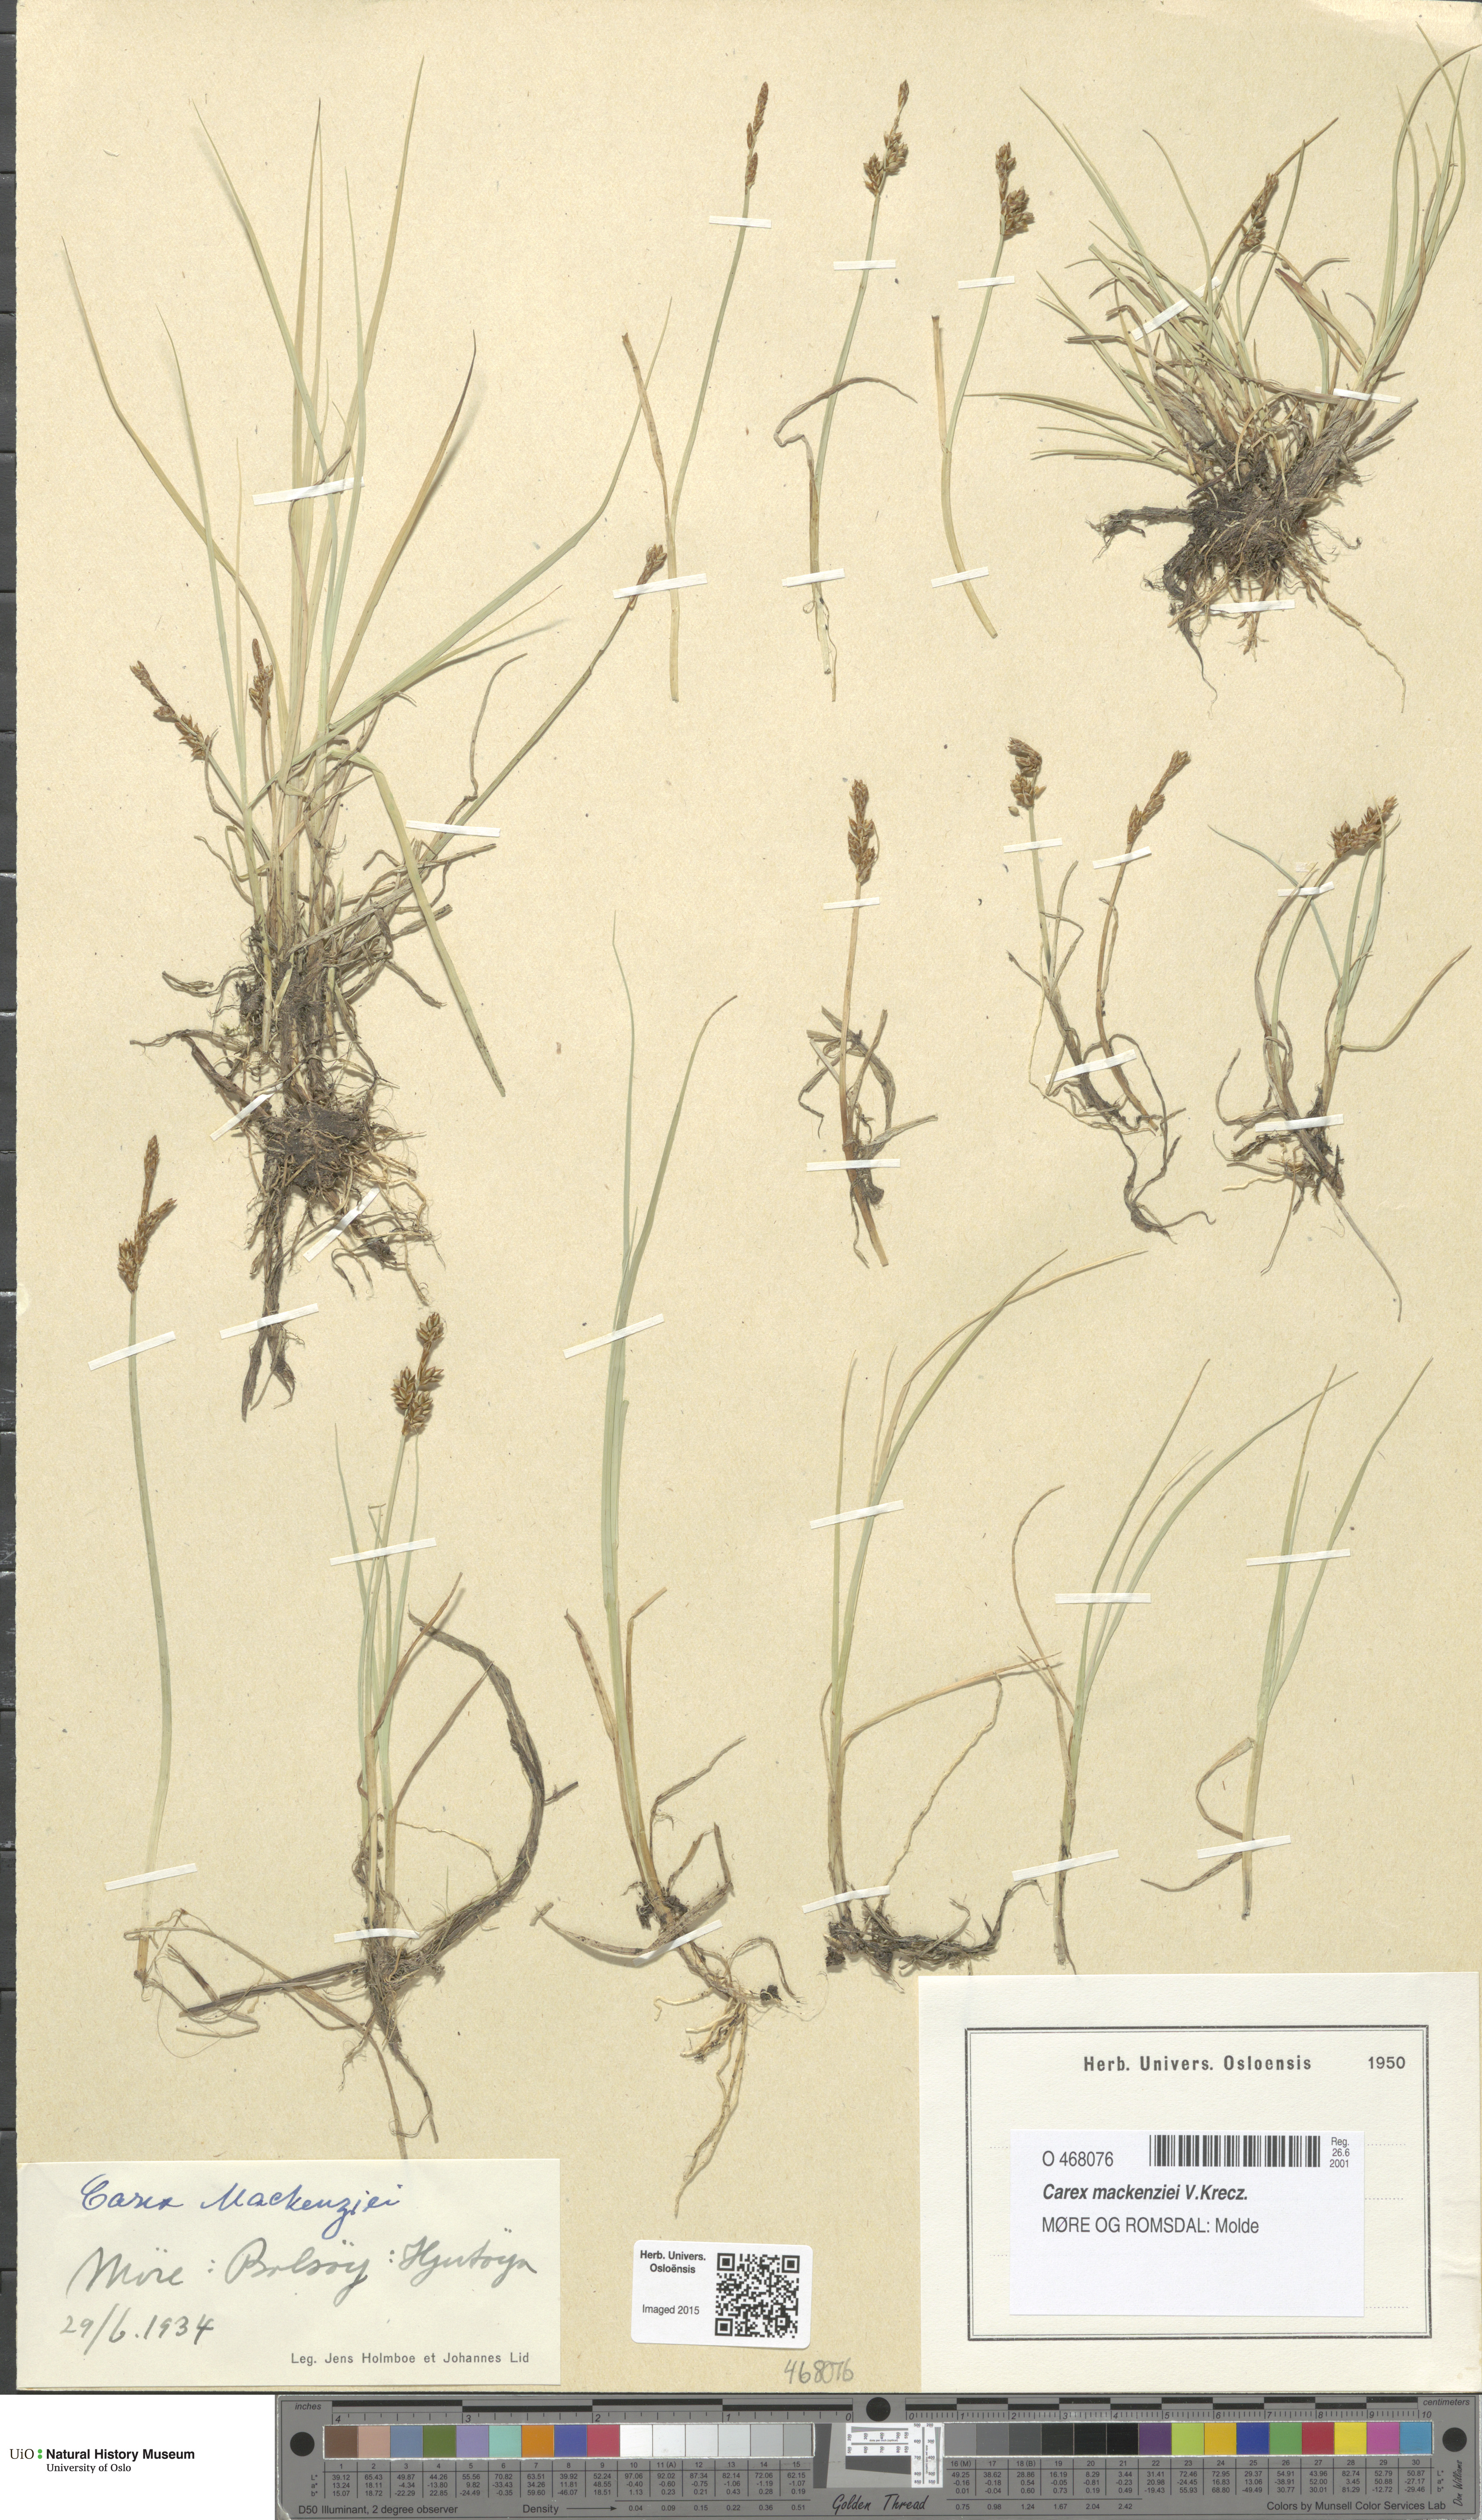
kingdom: Plantae
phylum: Tracheophyta
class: Liliopsida
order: Poales
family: Cyperaceae
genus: Carex
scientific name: Carex mackenziei
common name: Mackenzie's sedge
